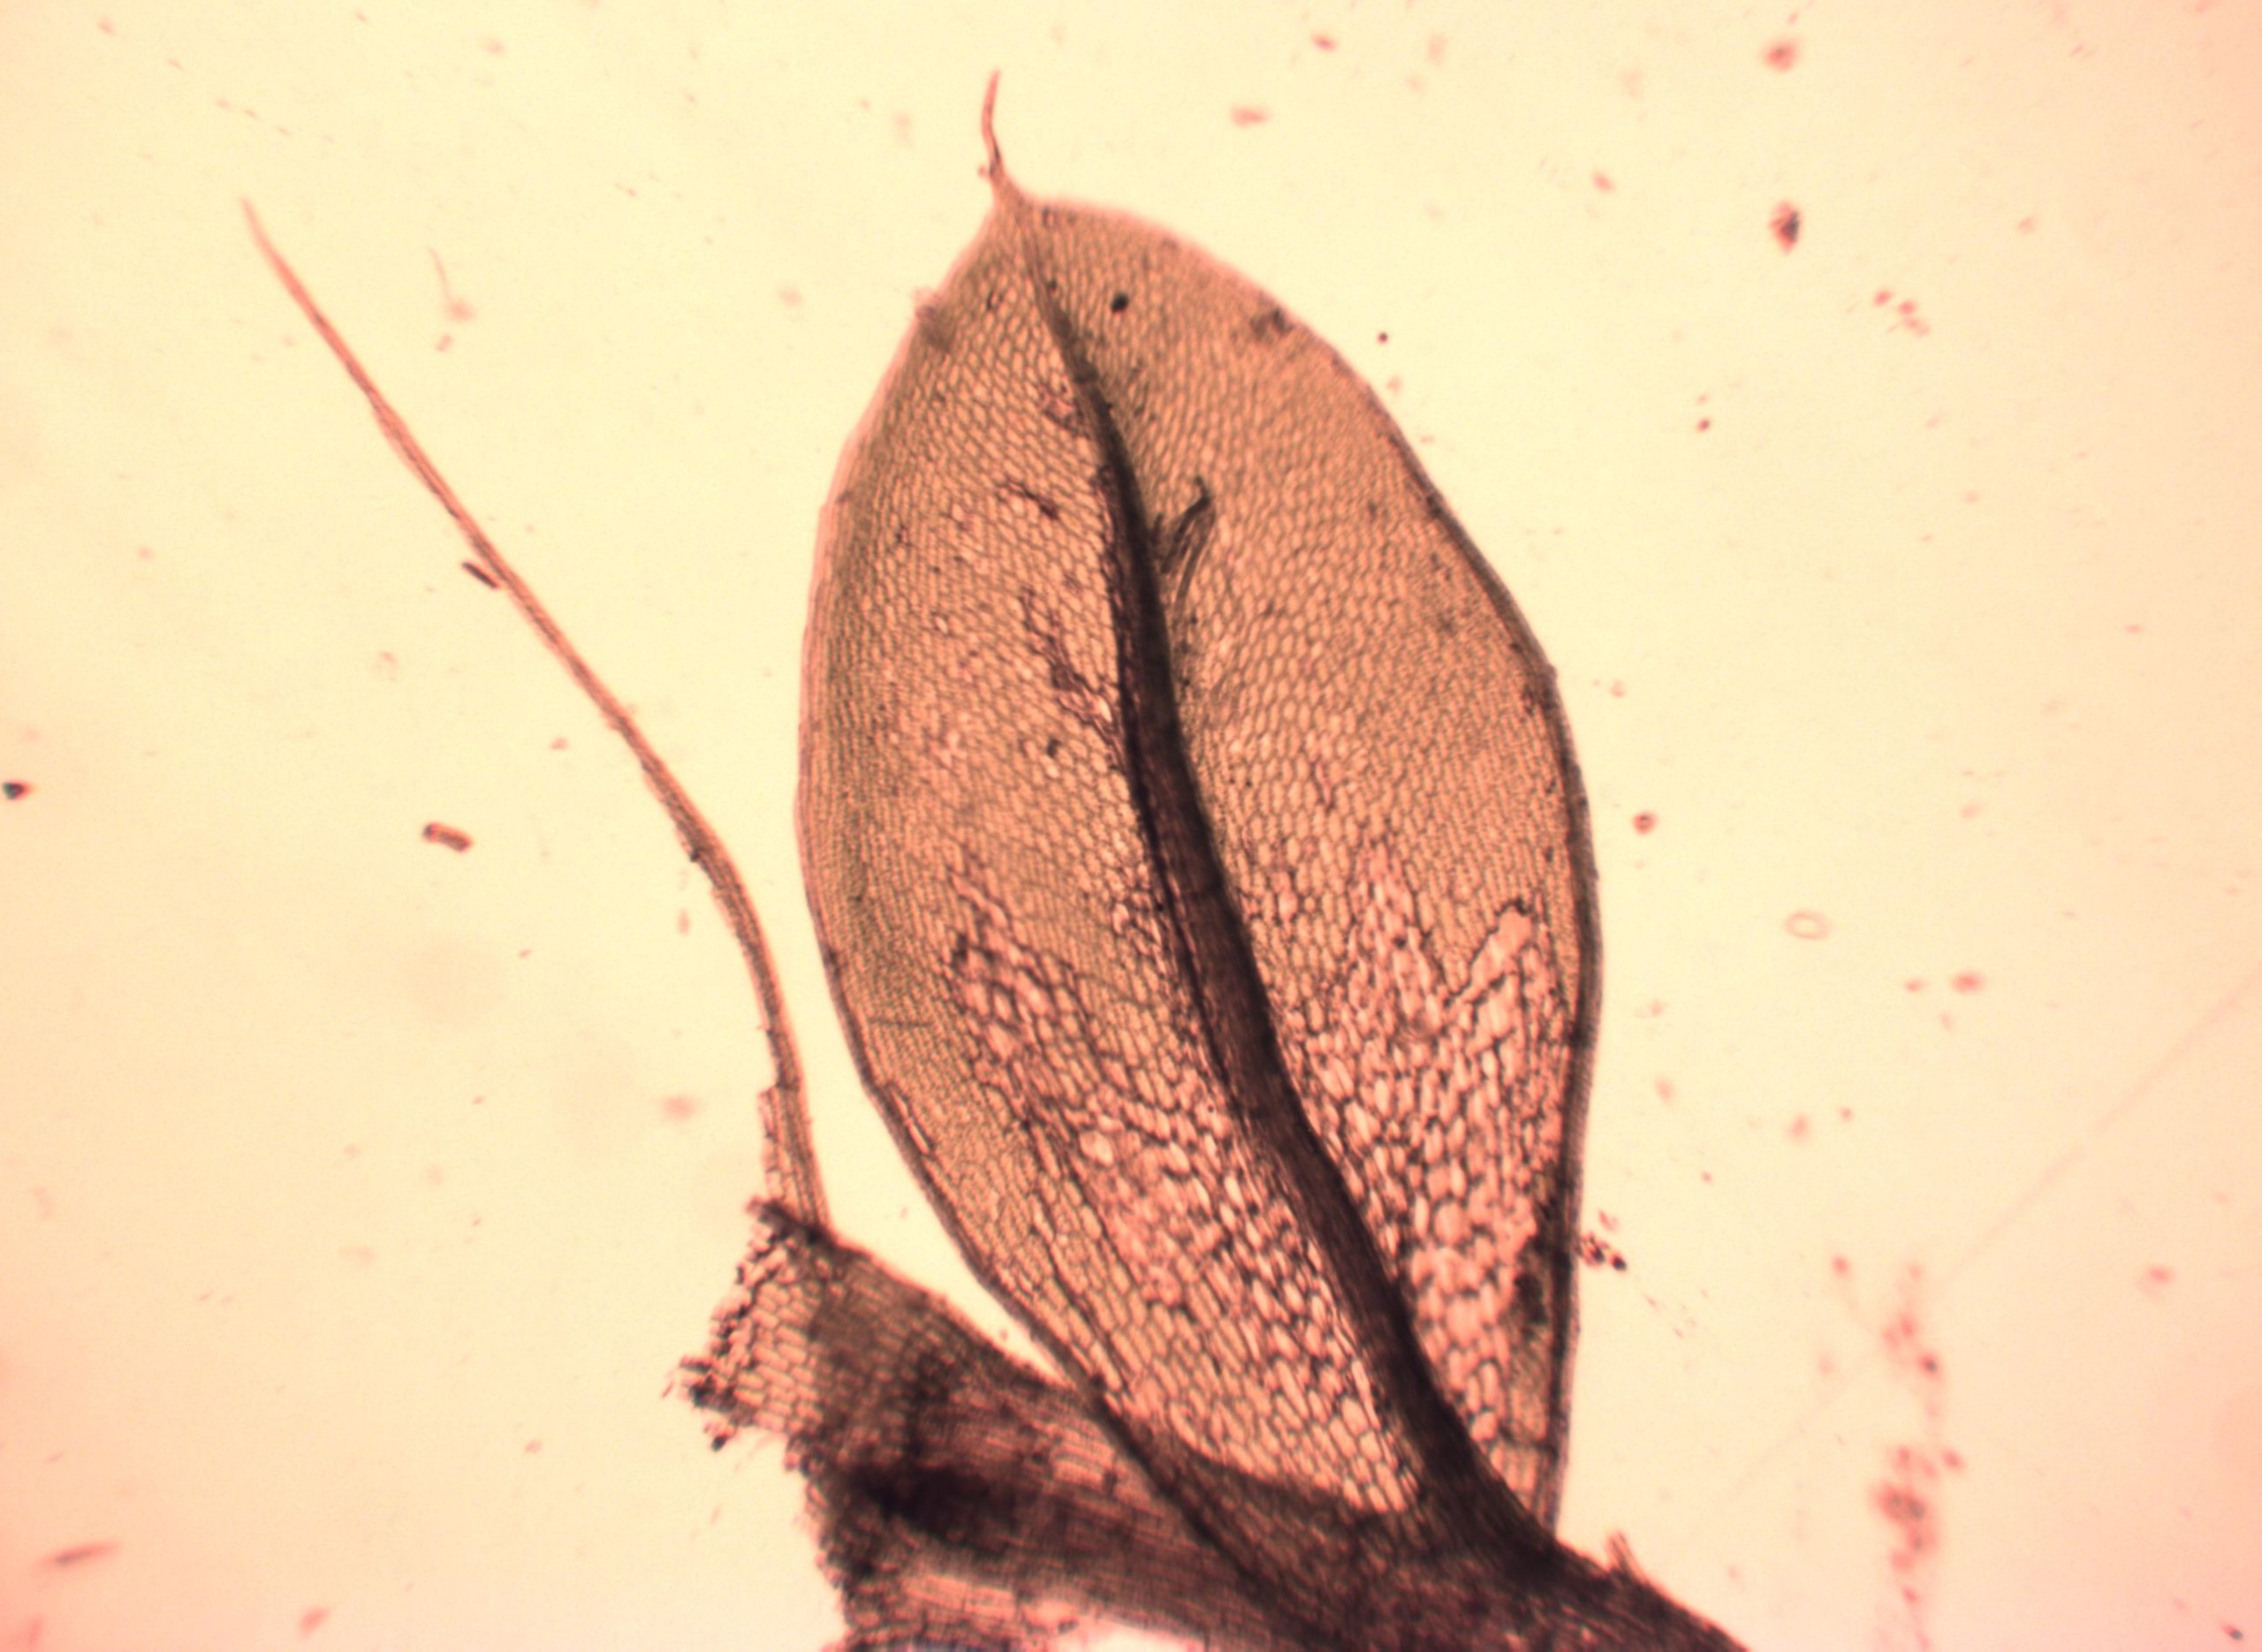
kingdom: Plantae
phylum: Bryophyta
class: Bryopsida
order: Bryales
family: Bryaceae
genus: Rosulabryum
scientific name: Rosulabryum capillare
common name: Hårspidset bryum
